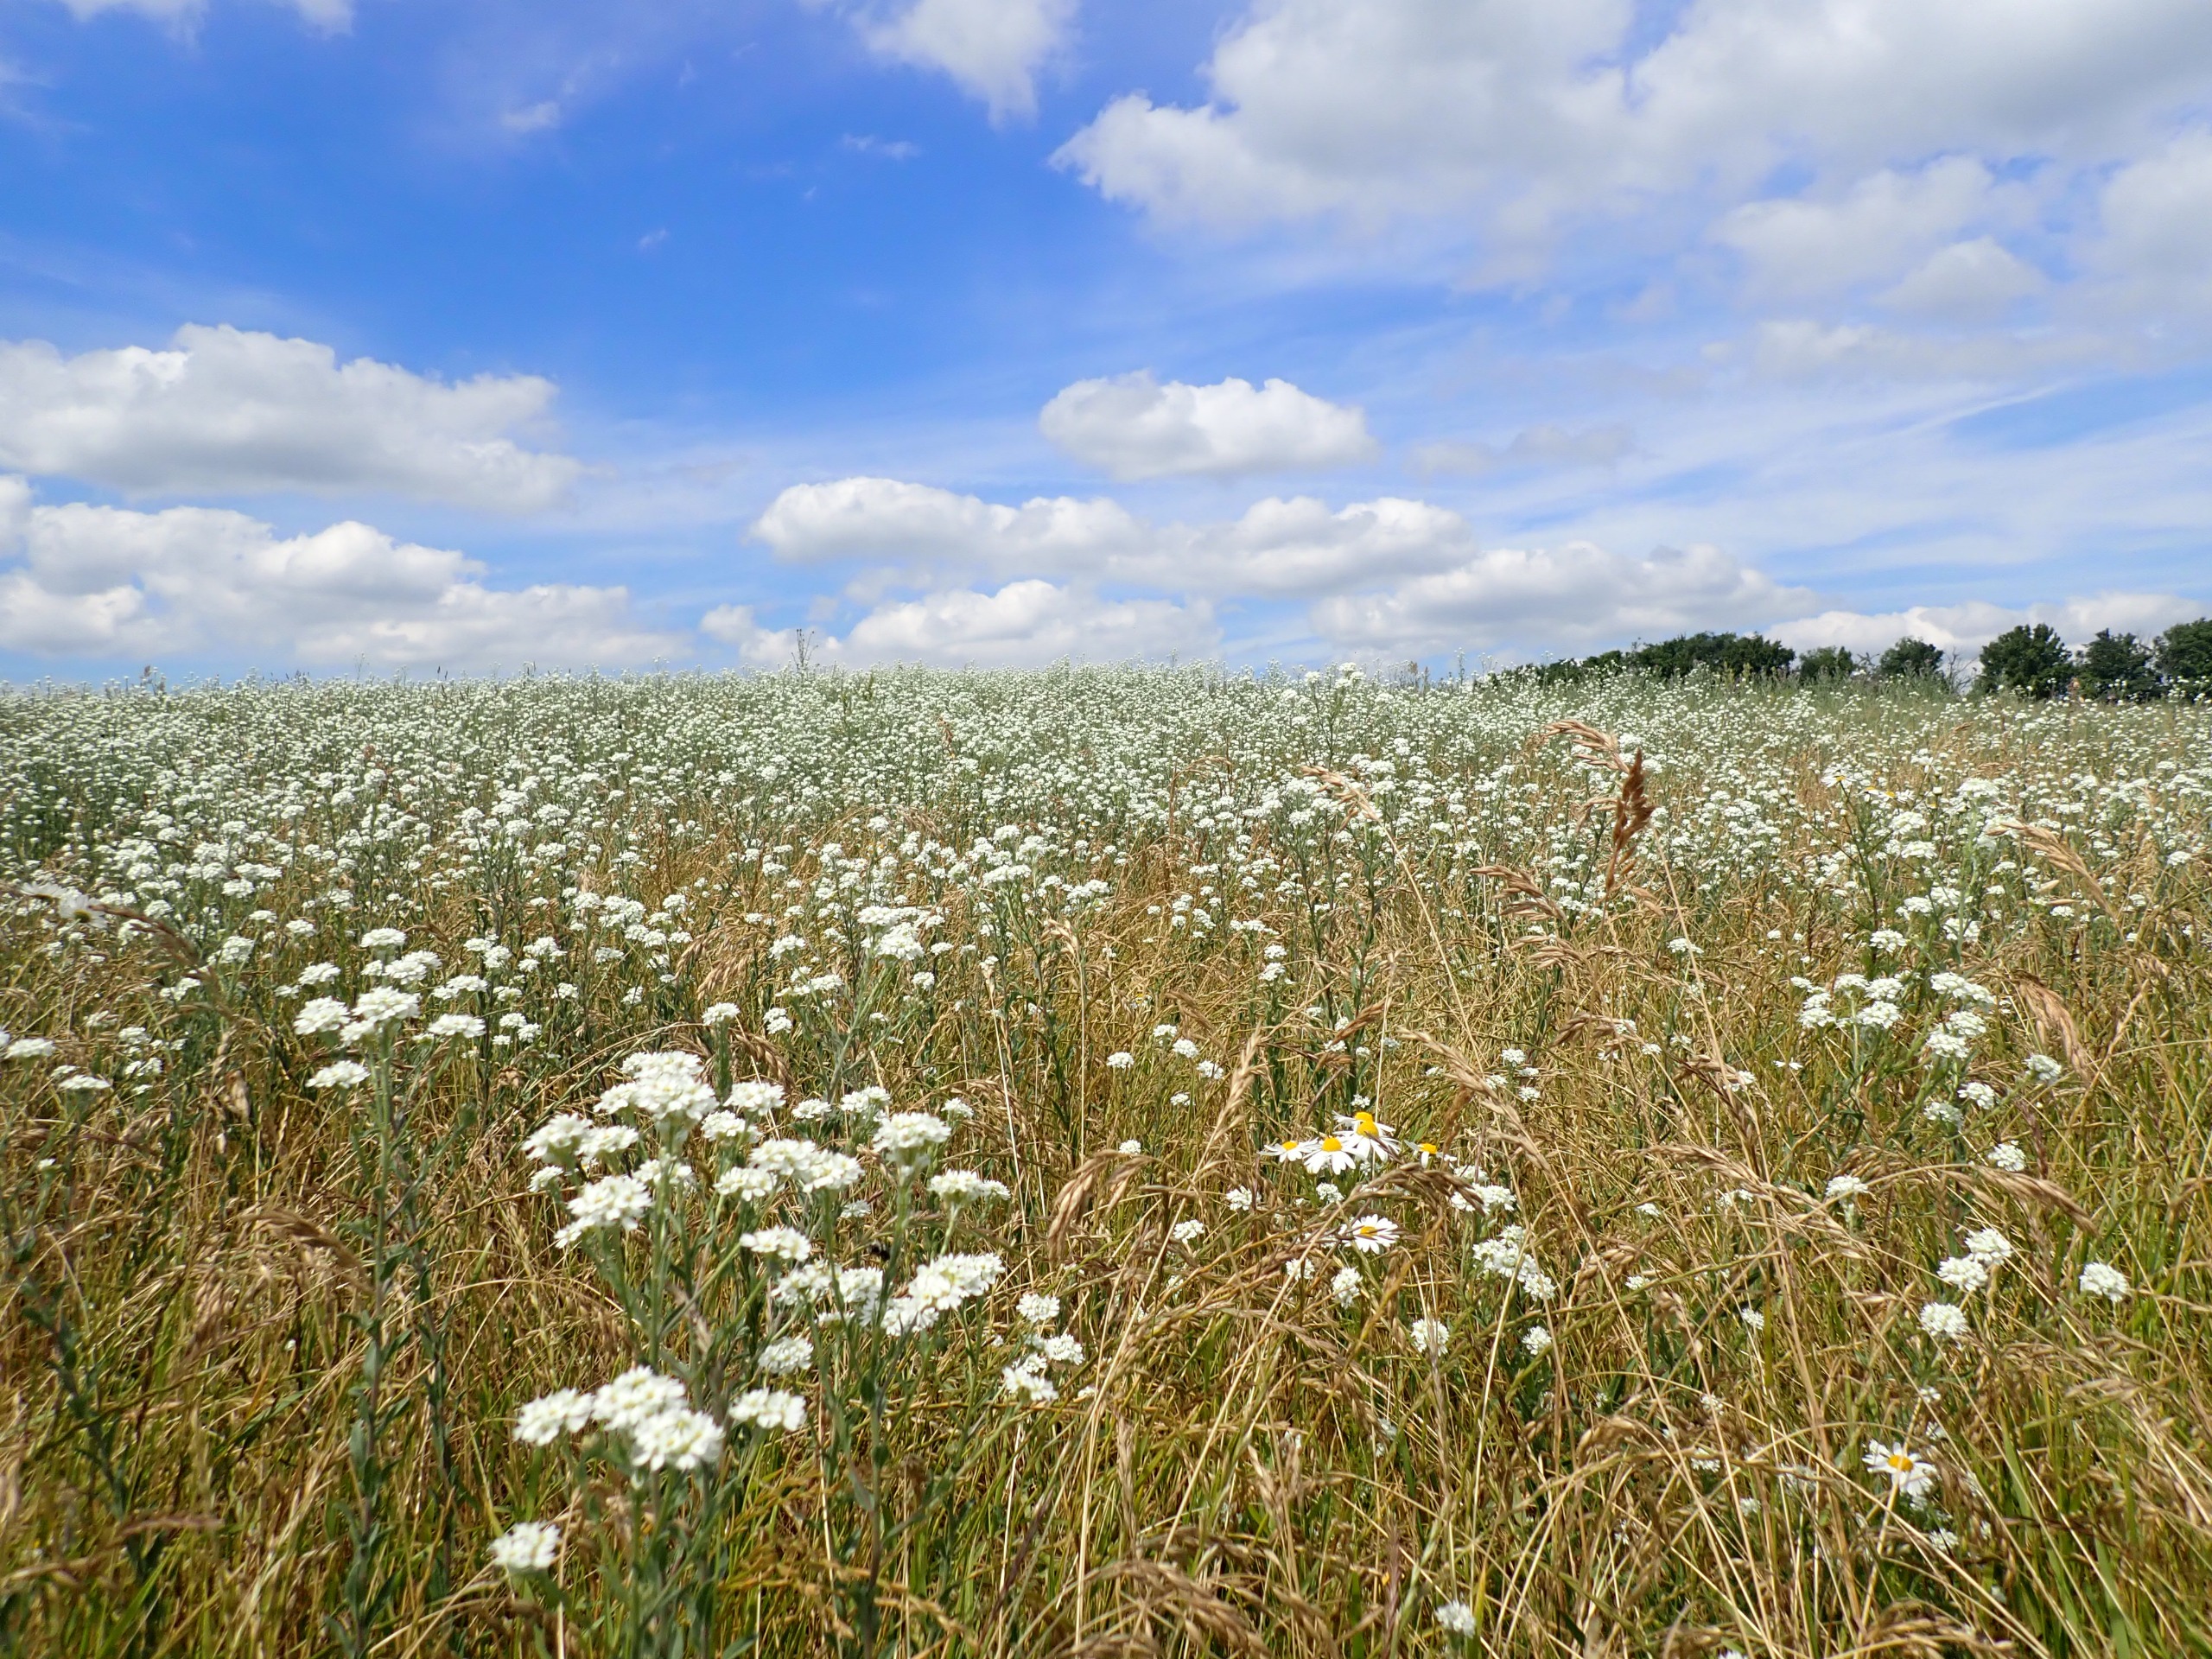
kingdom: Plantae
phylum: Tracheophyta
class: Magnoliopsida
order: Brassicales
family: Brassicaceae
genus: Berteroa
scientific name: Berteroa incana
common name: Kløvplade
